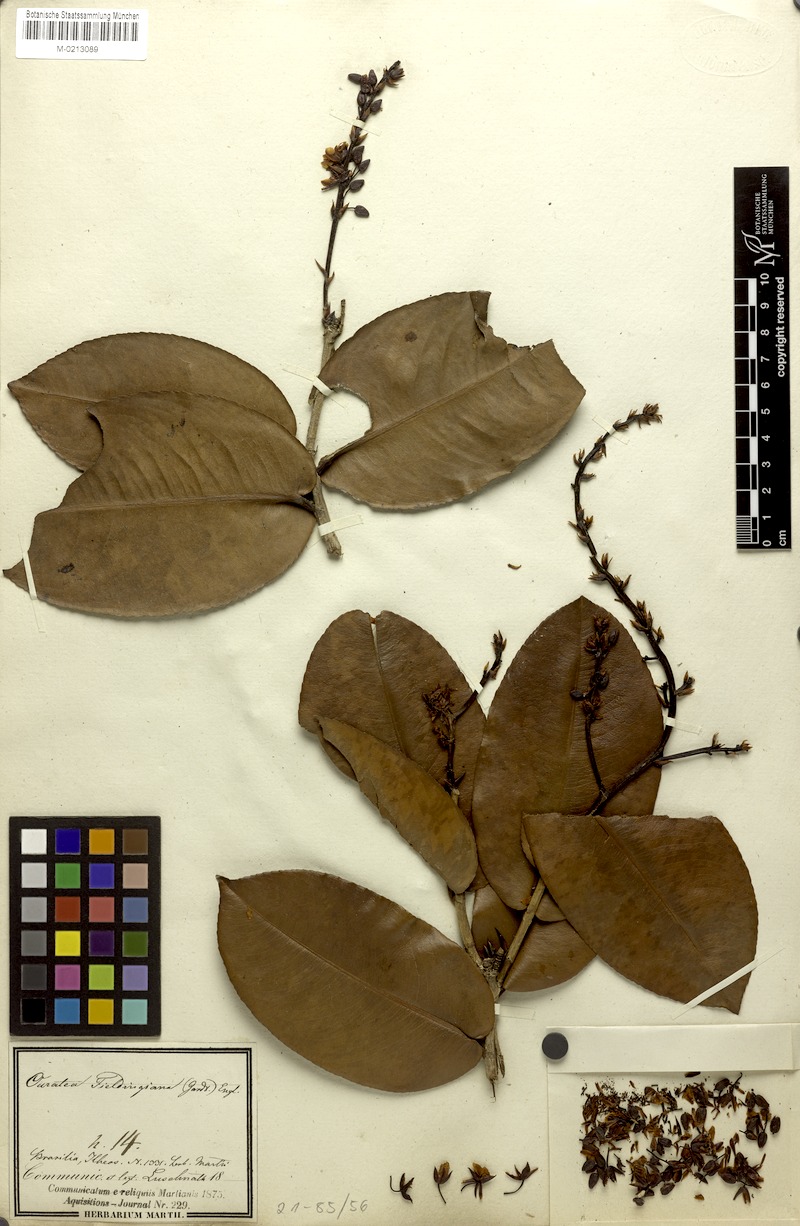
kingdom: Plantae
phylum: Tracheophyta
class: Magnoliopsida
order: Malpighiales
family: Ochnaceae
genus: Ouratea
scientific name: Ouratea fieldingiana
